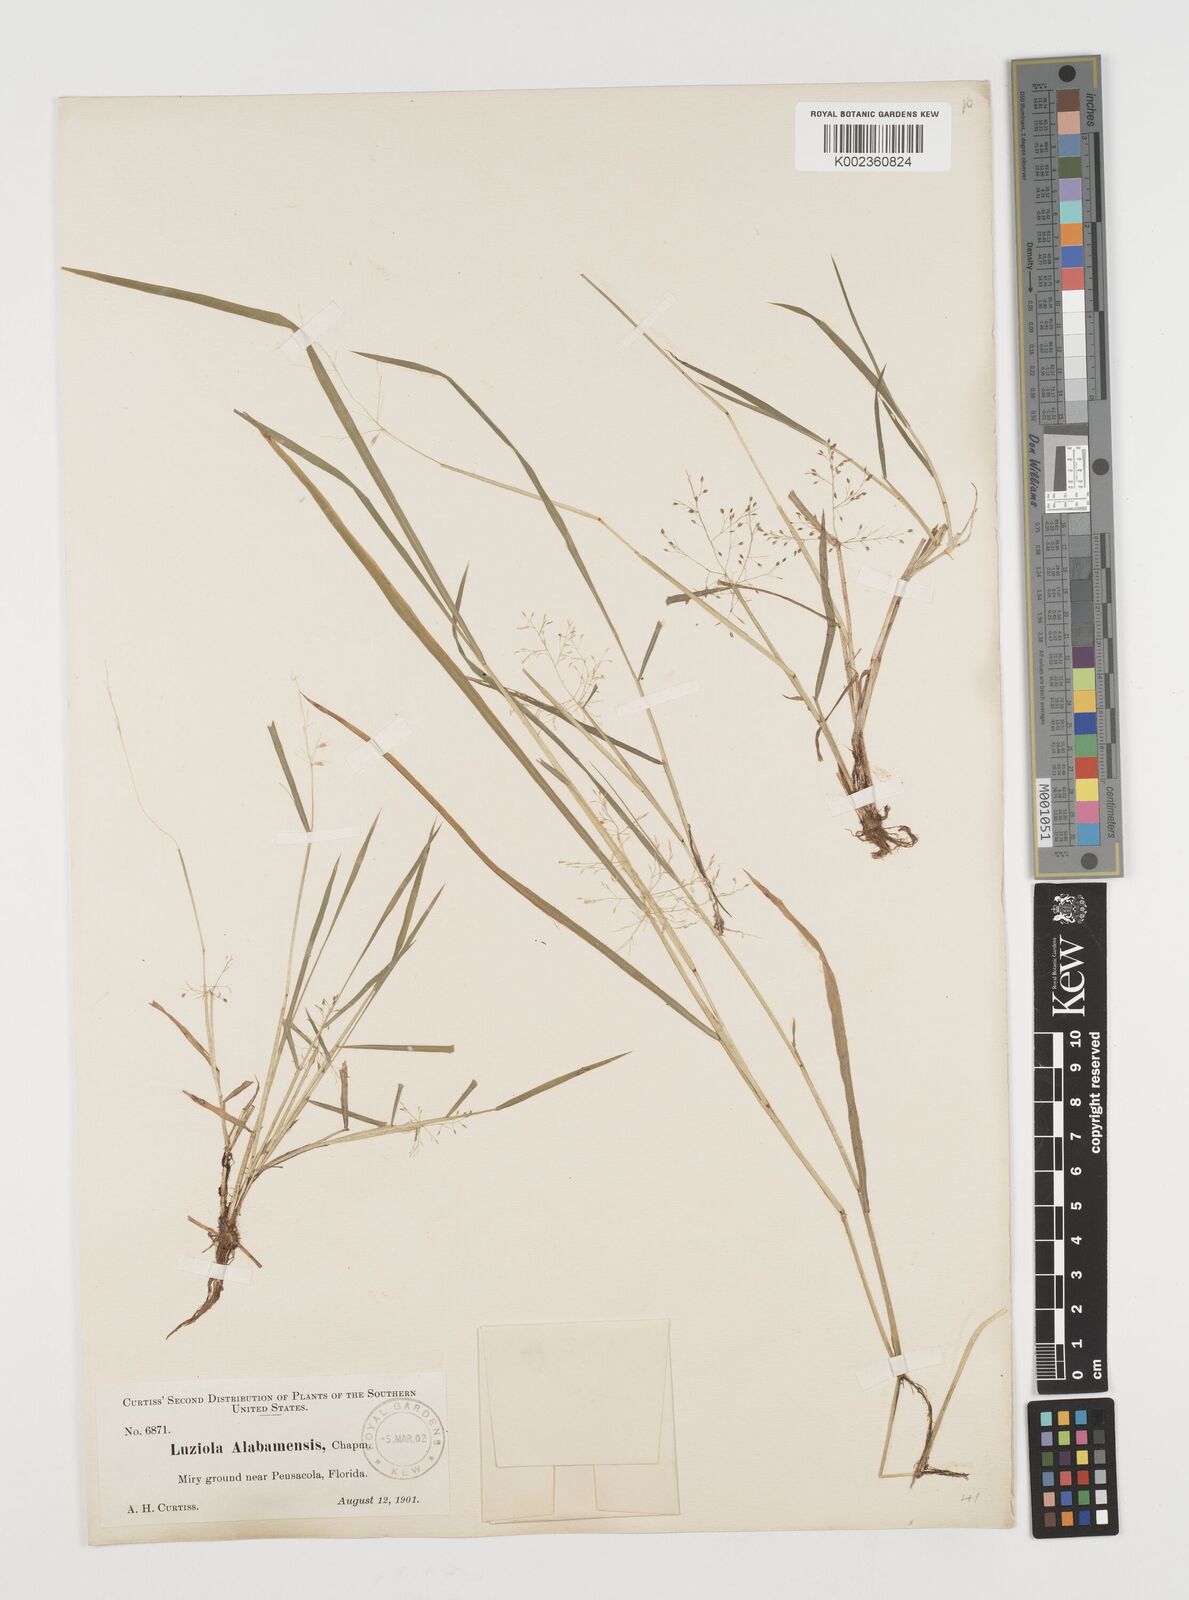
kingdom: Plantae
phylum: Tracheophyta
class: Liliopsida
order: Poales
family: Poaceae
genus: Luziola
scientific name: Luziola
